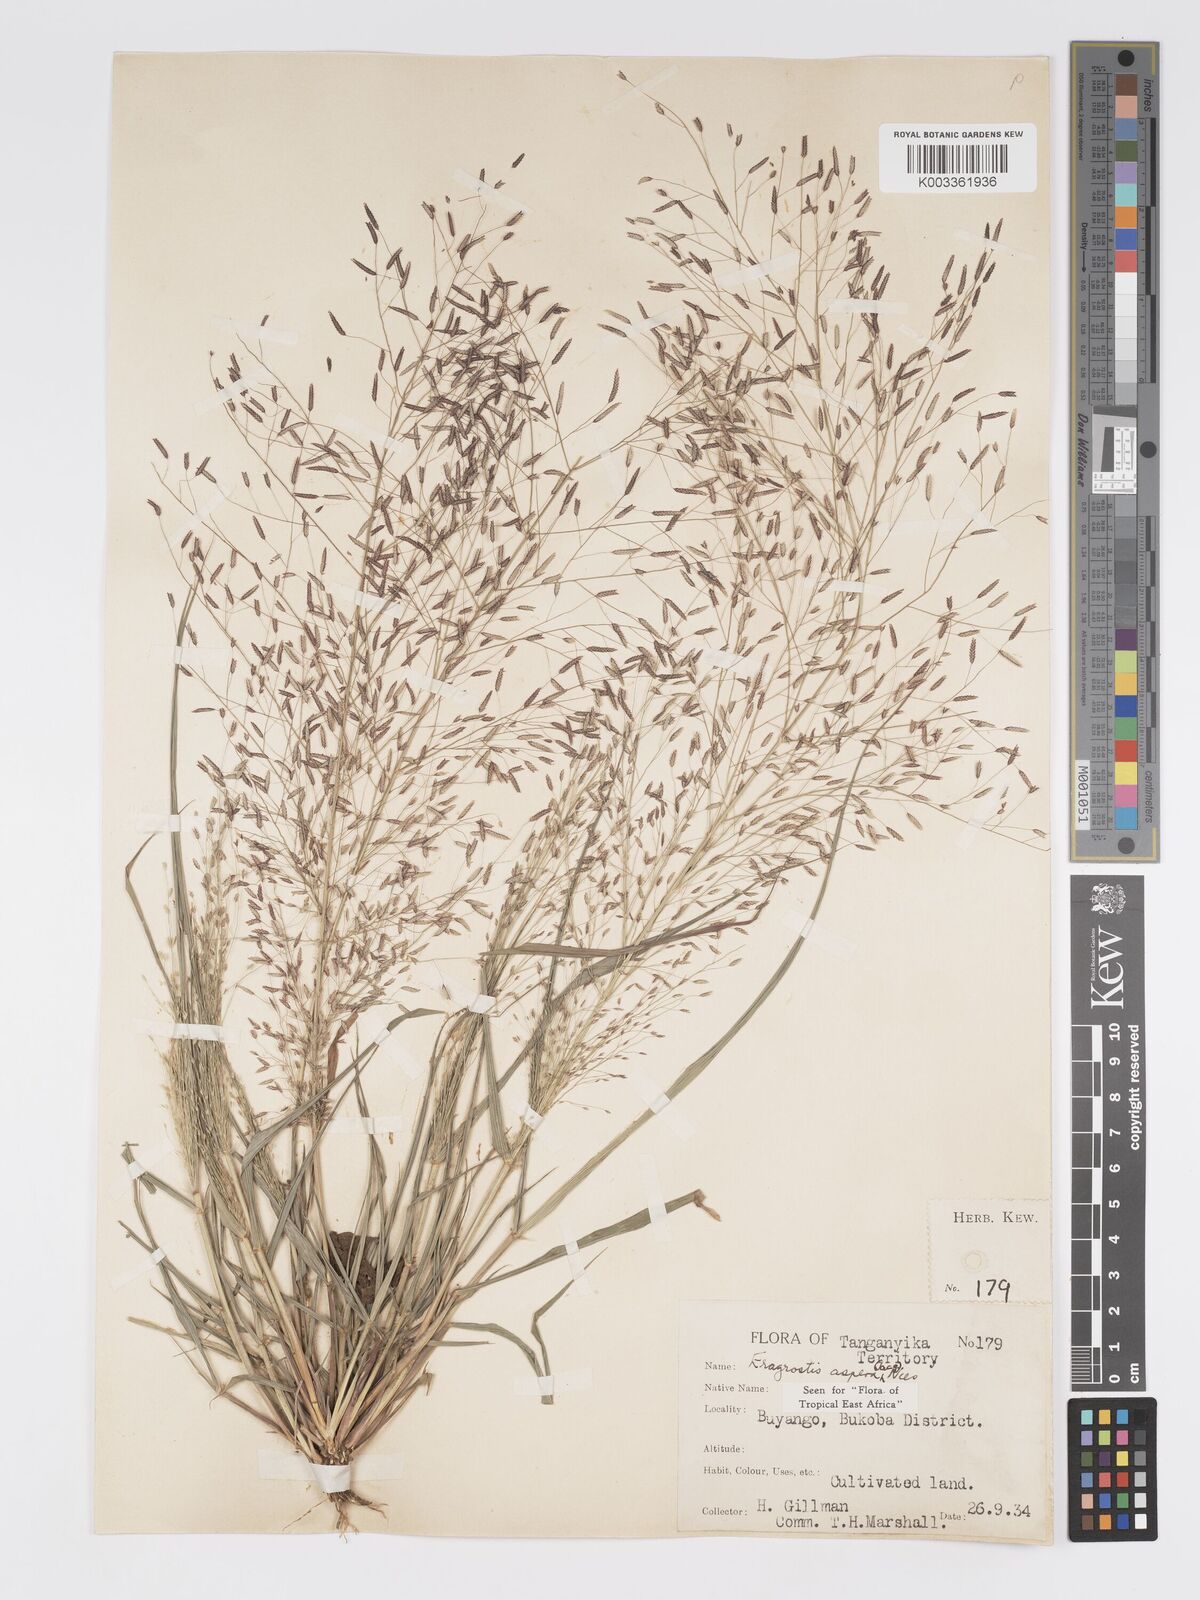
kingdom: Plantae
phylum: Tracheophyta
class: Liliopsida
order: Poales
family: Poaceae
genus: Eragrostis
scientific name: Eragrostis aspera
